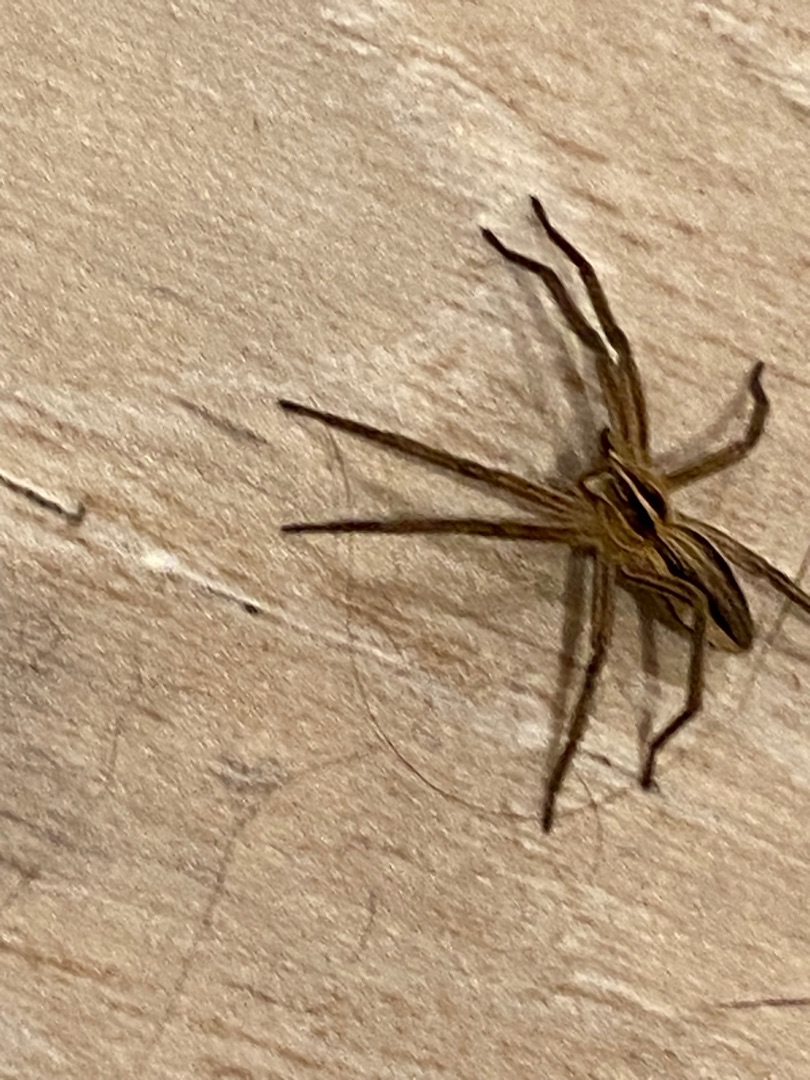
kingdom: Animalia
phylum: Arthropoda
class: Arachnida
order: Araneae
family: Pisauridae
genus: Pisaura
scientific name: Pisaura mirabilis
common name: Almindelig rovedderkop
